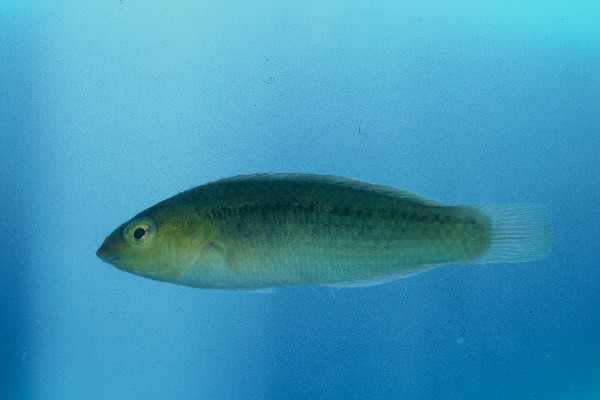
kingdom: Animalia
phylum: Chordata
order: Perciformes
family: Labridae
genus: Halichoeres
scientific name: Halichoeres scapularis
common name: Brownbanded wrasse
